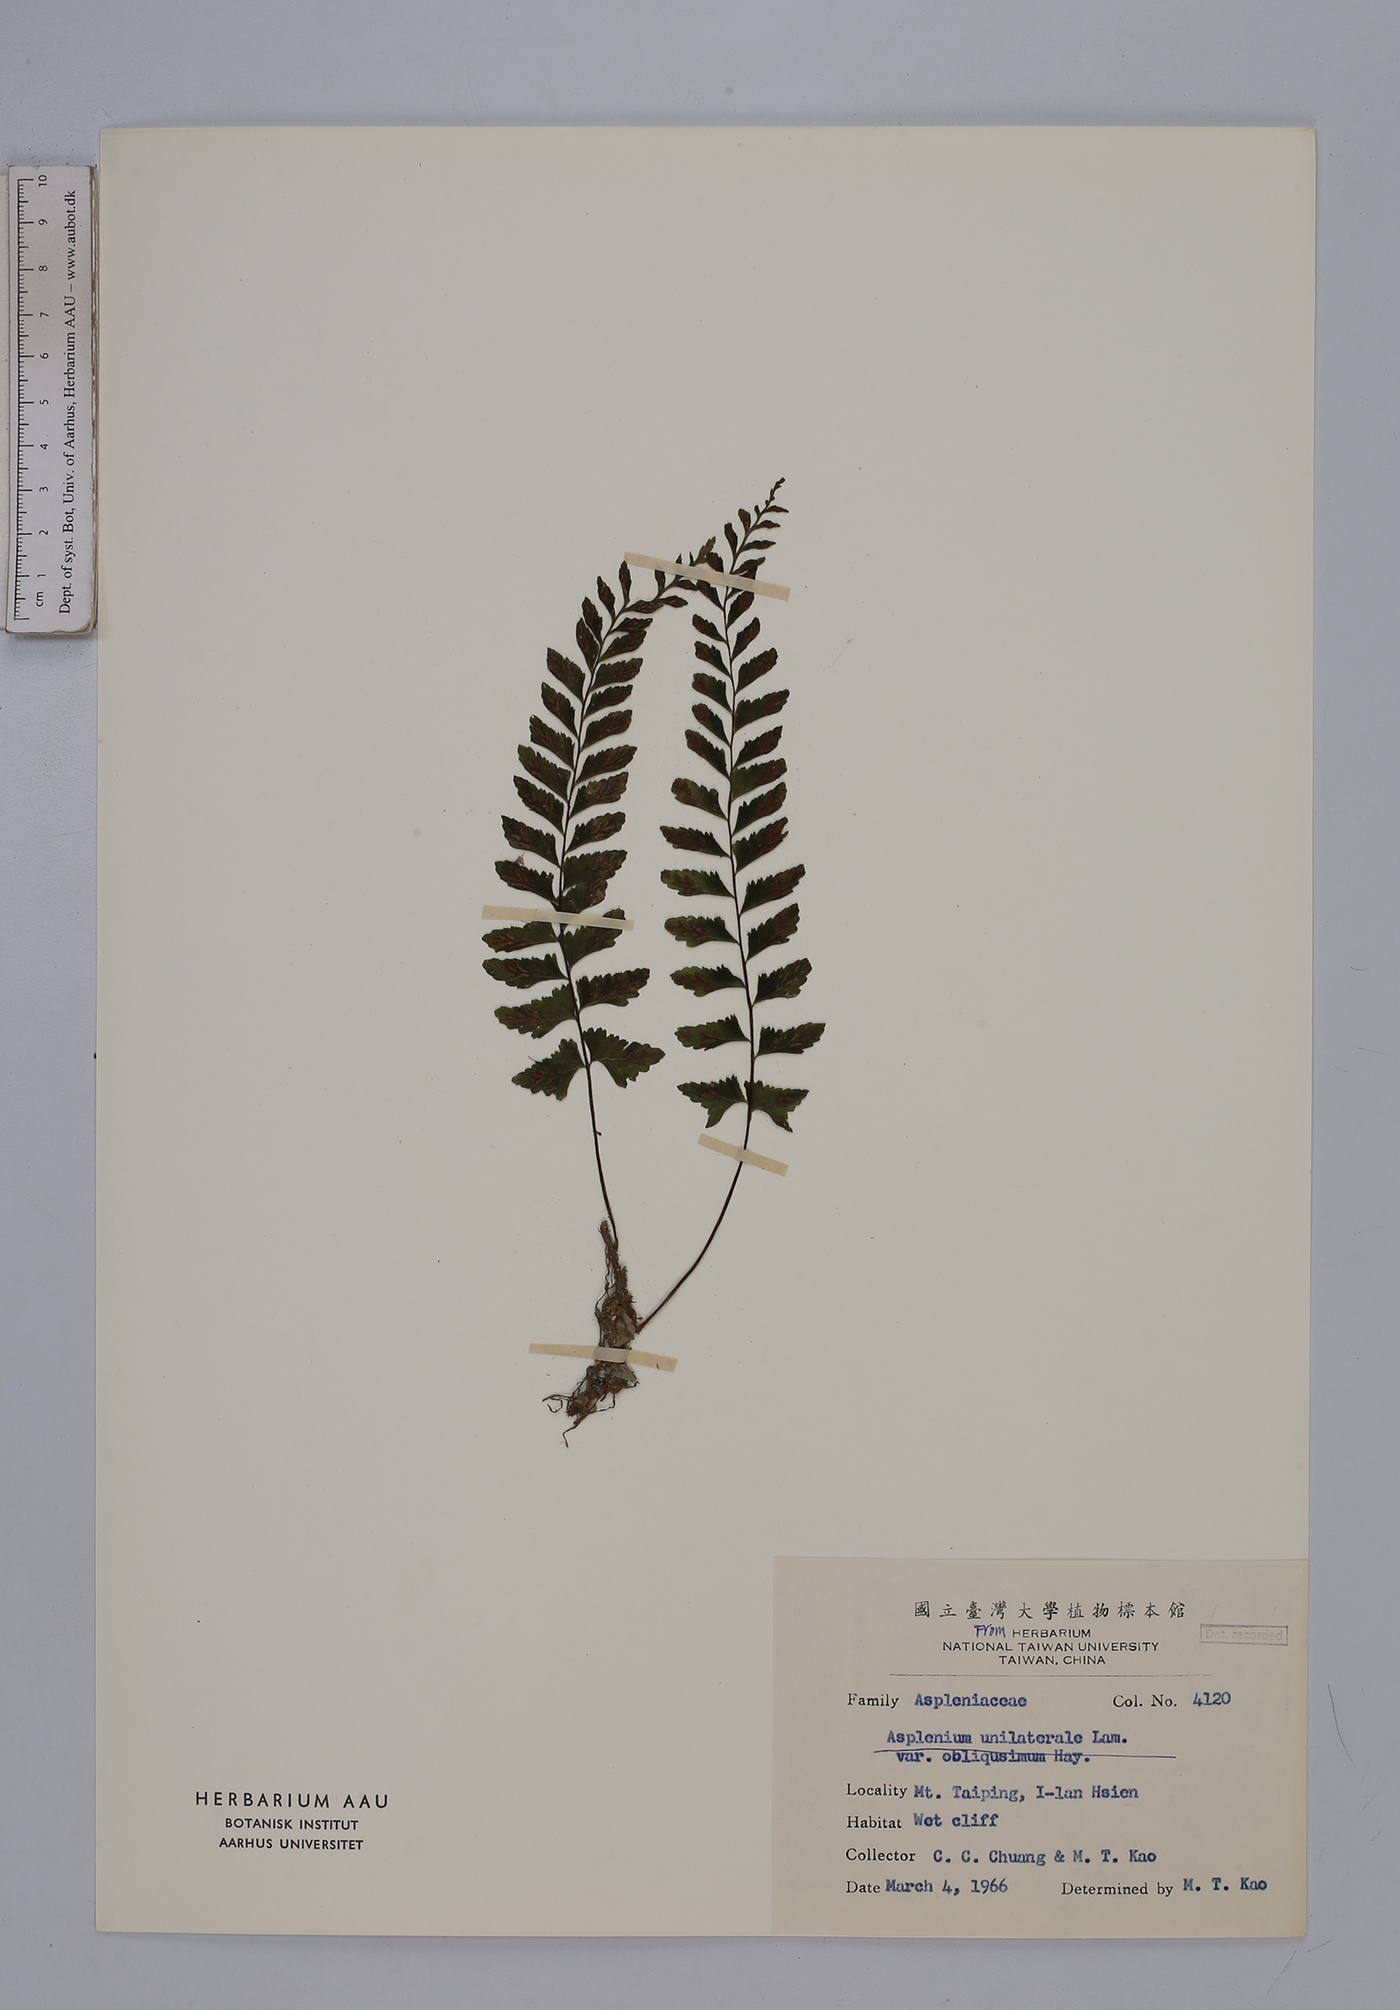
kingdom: Plantae
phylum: Tracheophyta
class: Polypodiopsida
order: Polypodiales
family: Aspleniaceae
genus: Hymenasplenium
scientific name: Hymenasplenium unilaterale
